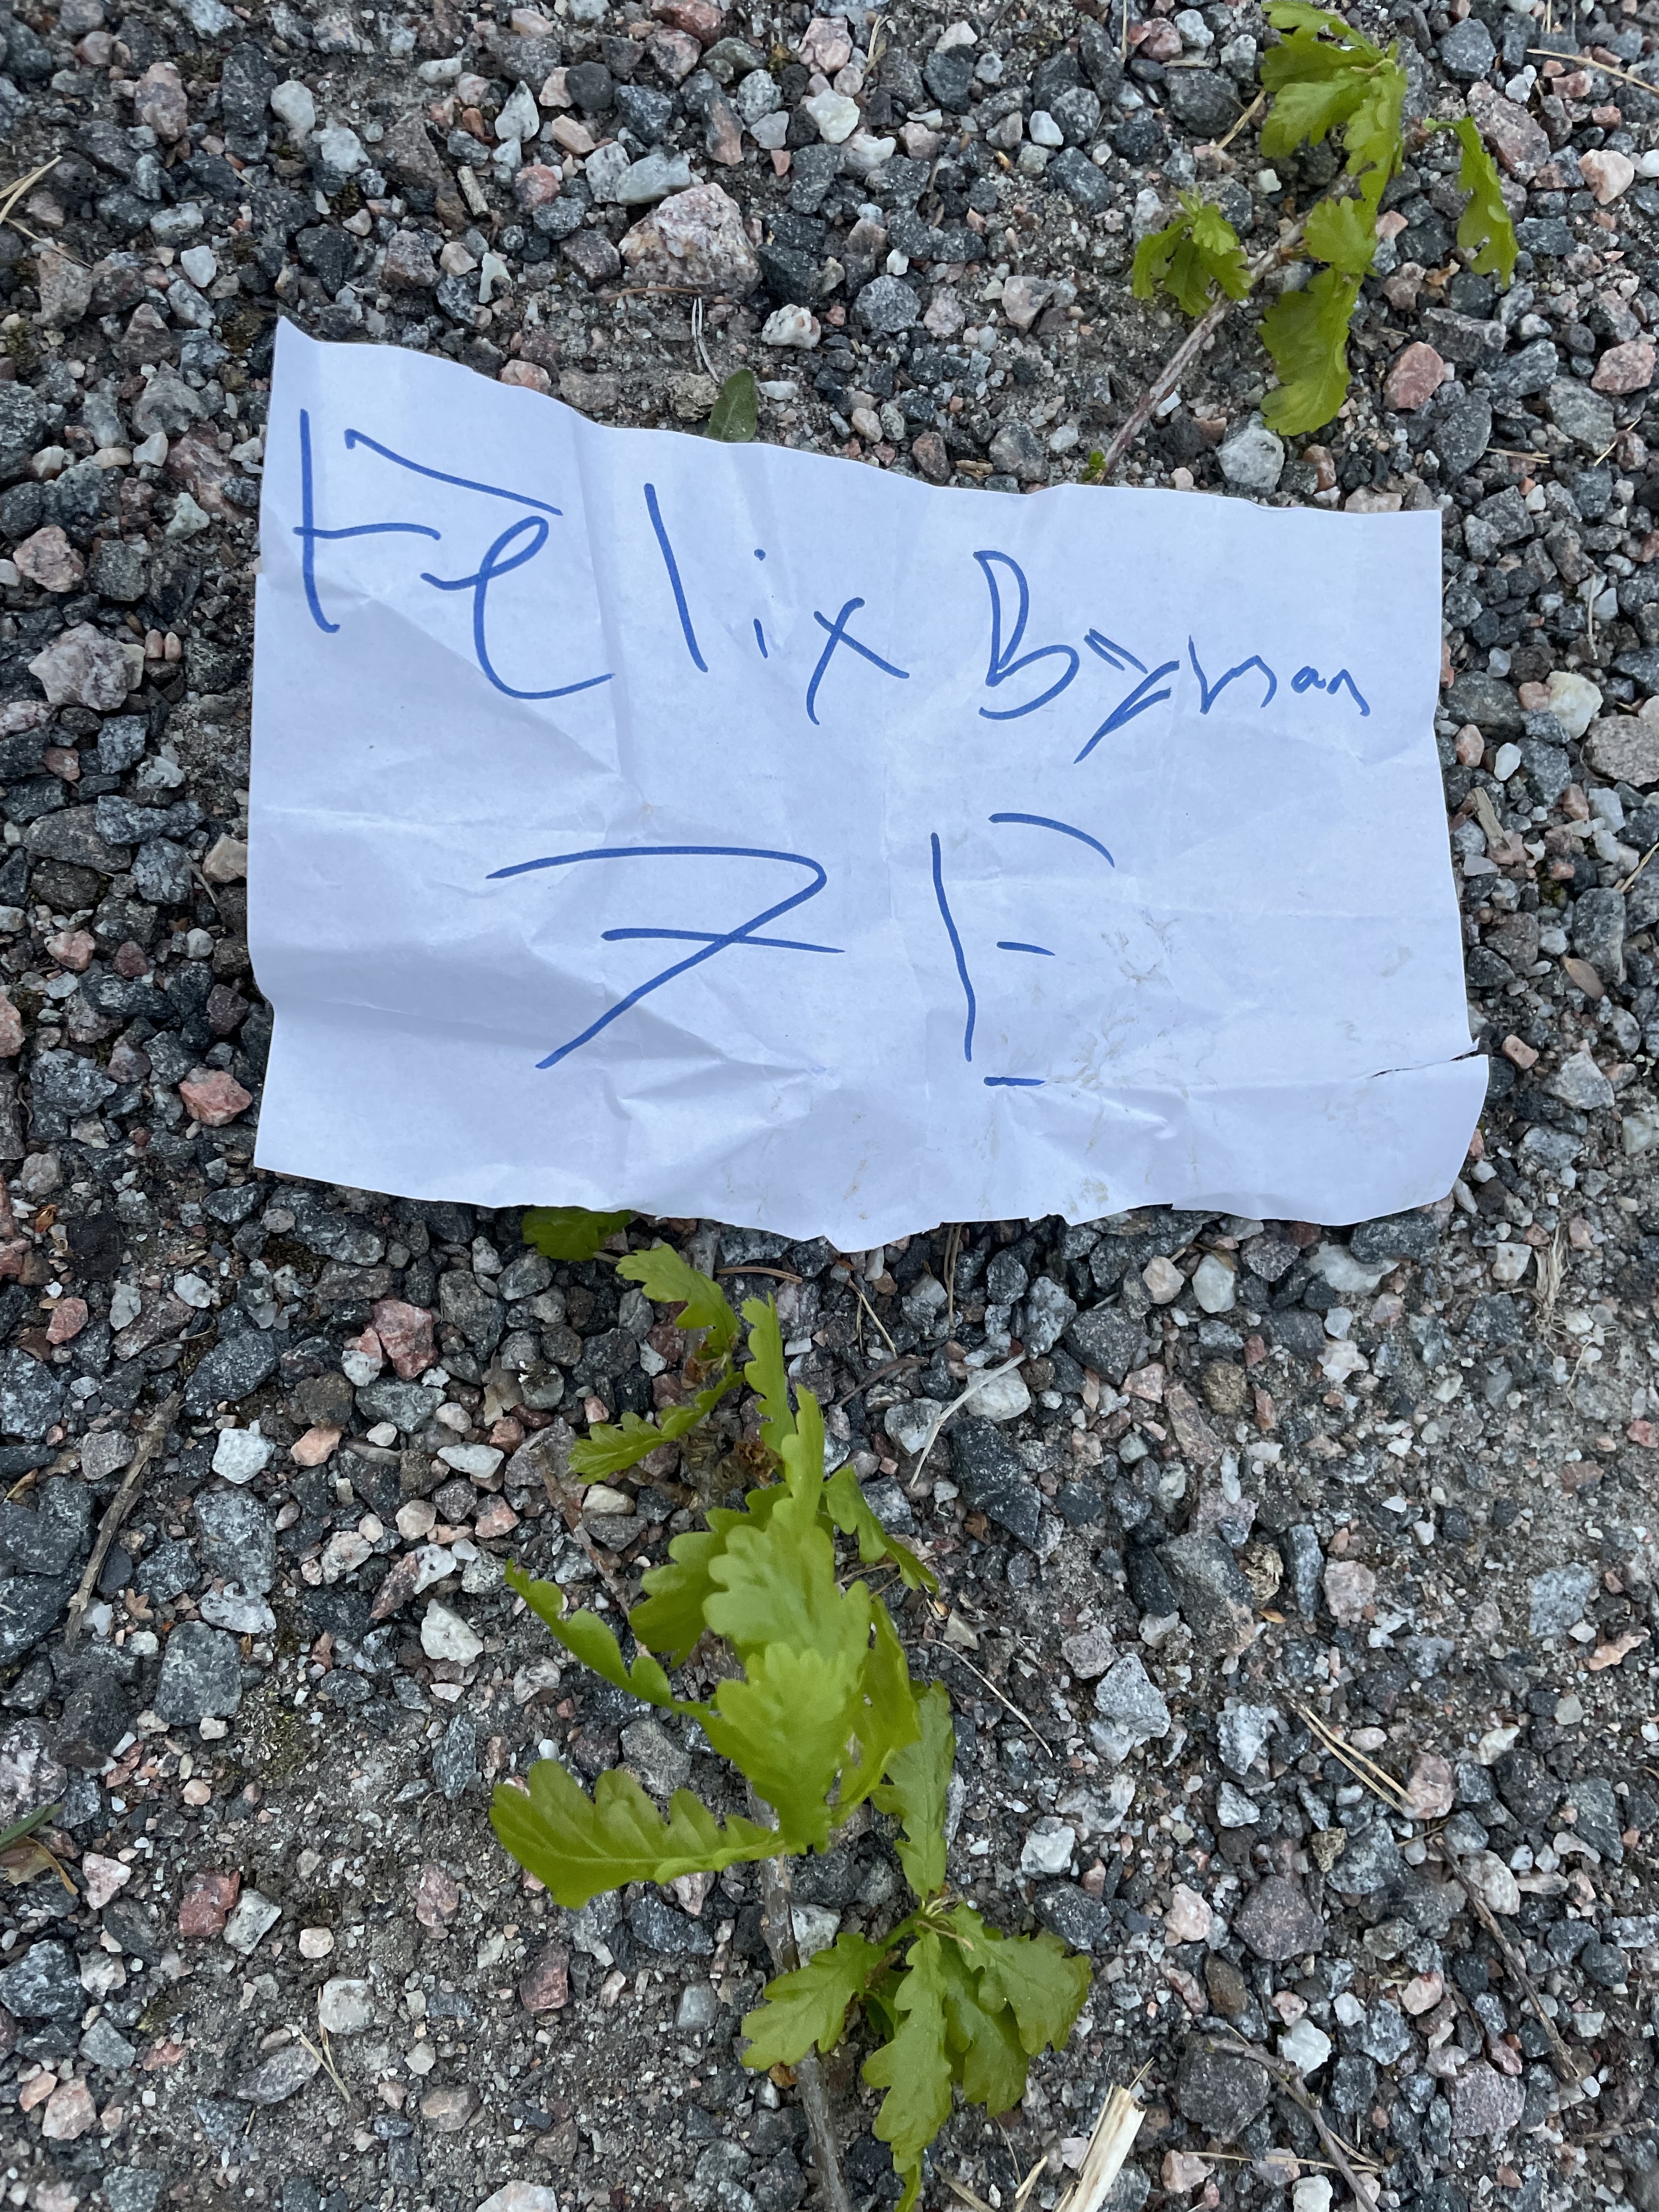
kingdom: Plantae
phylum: Tracheophyta
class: Magnoliopsida
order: Fagales
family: Fagaceae
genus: Quercus
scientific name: Quercus
